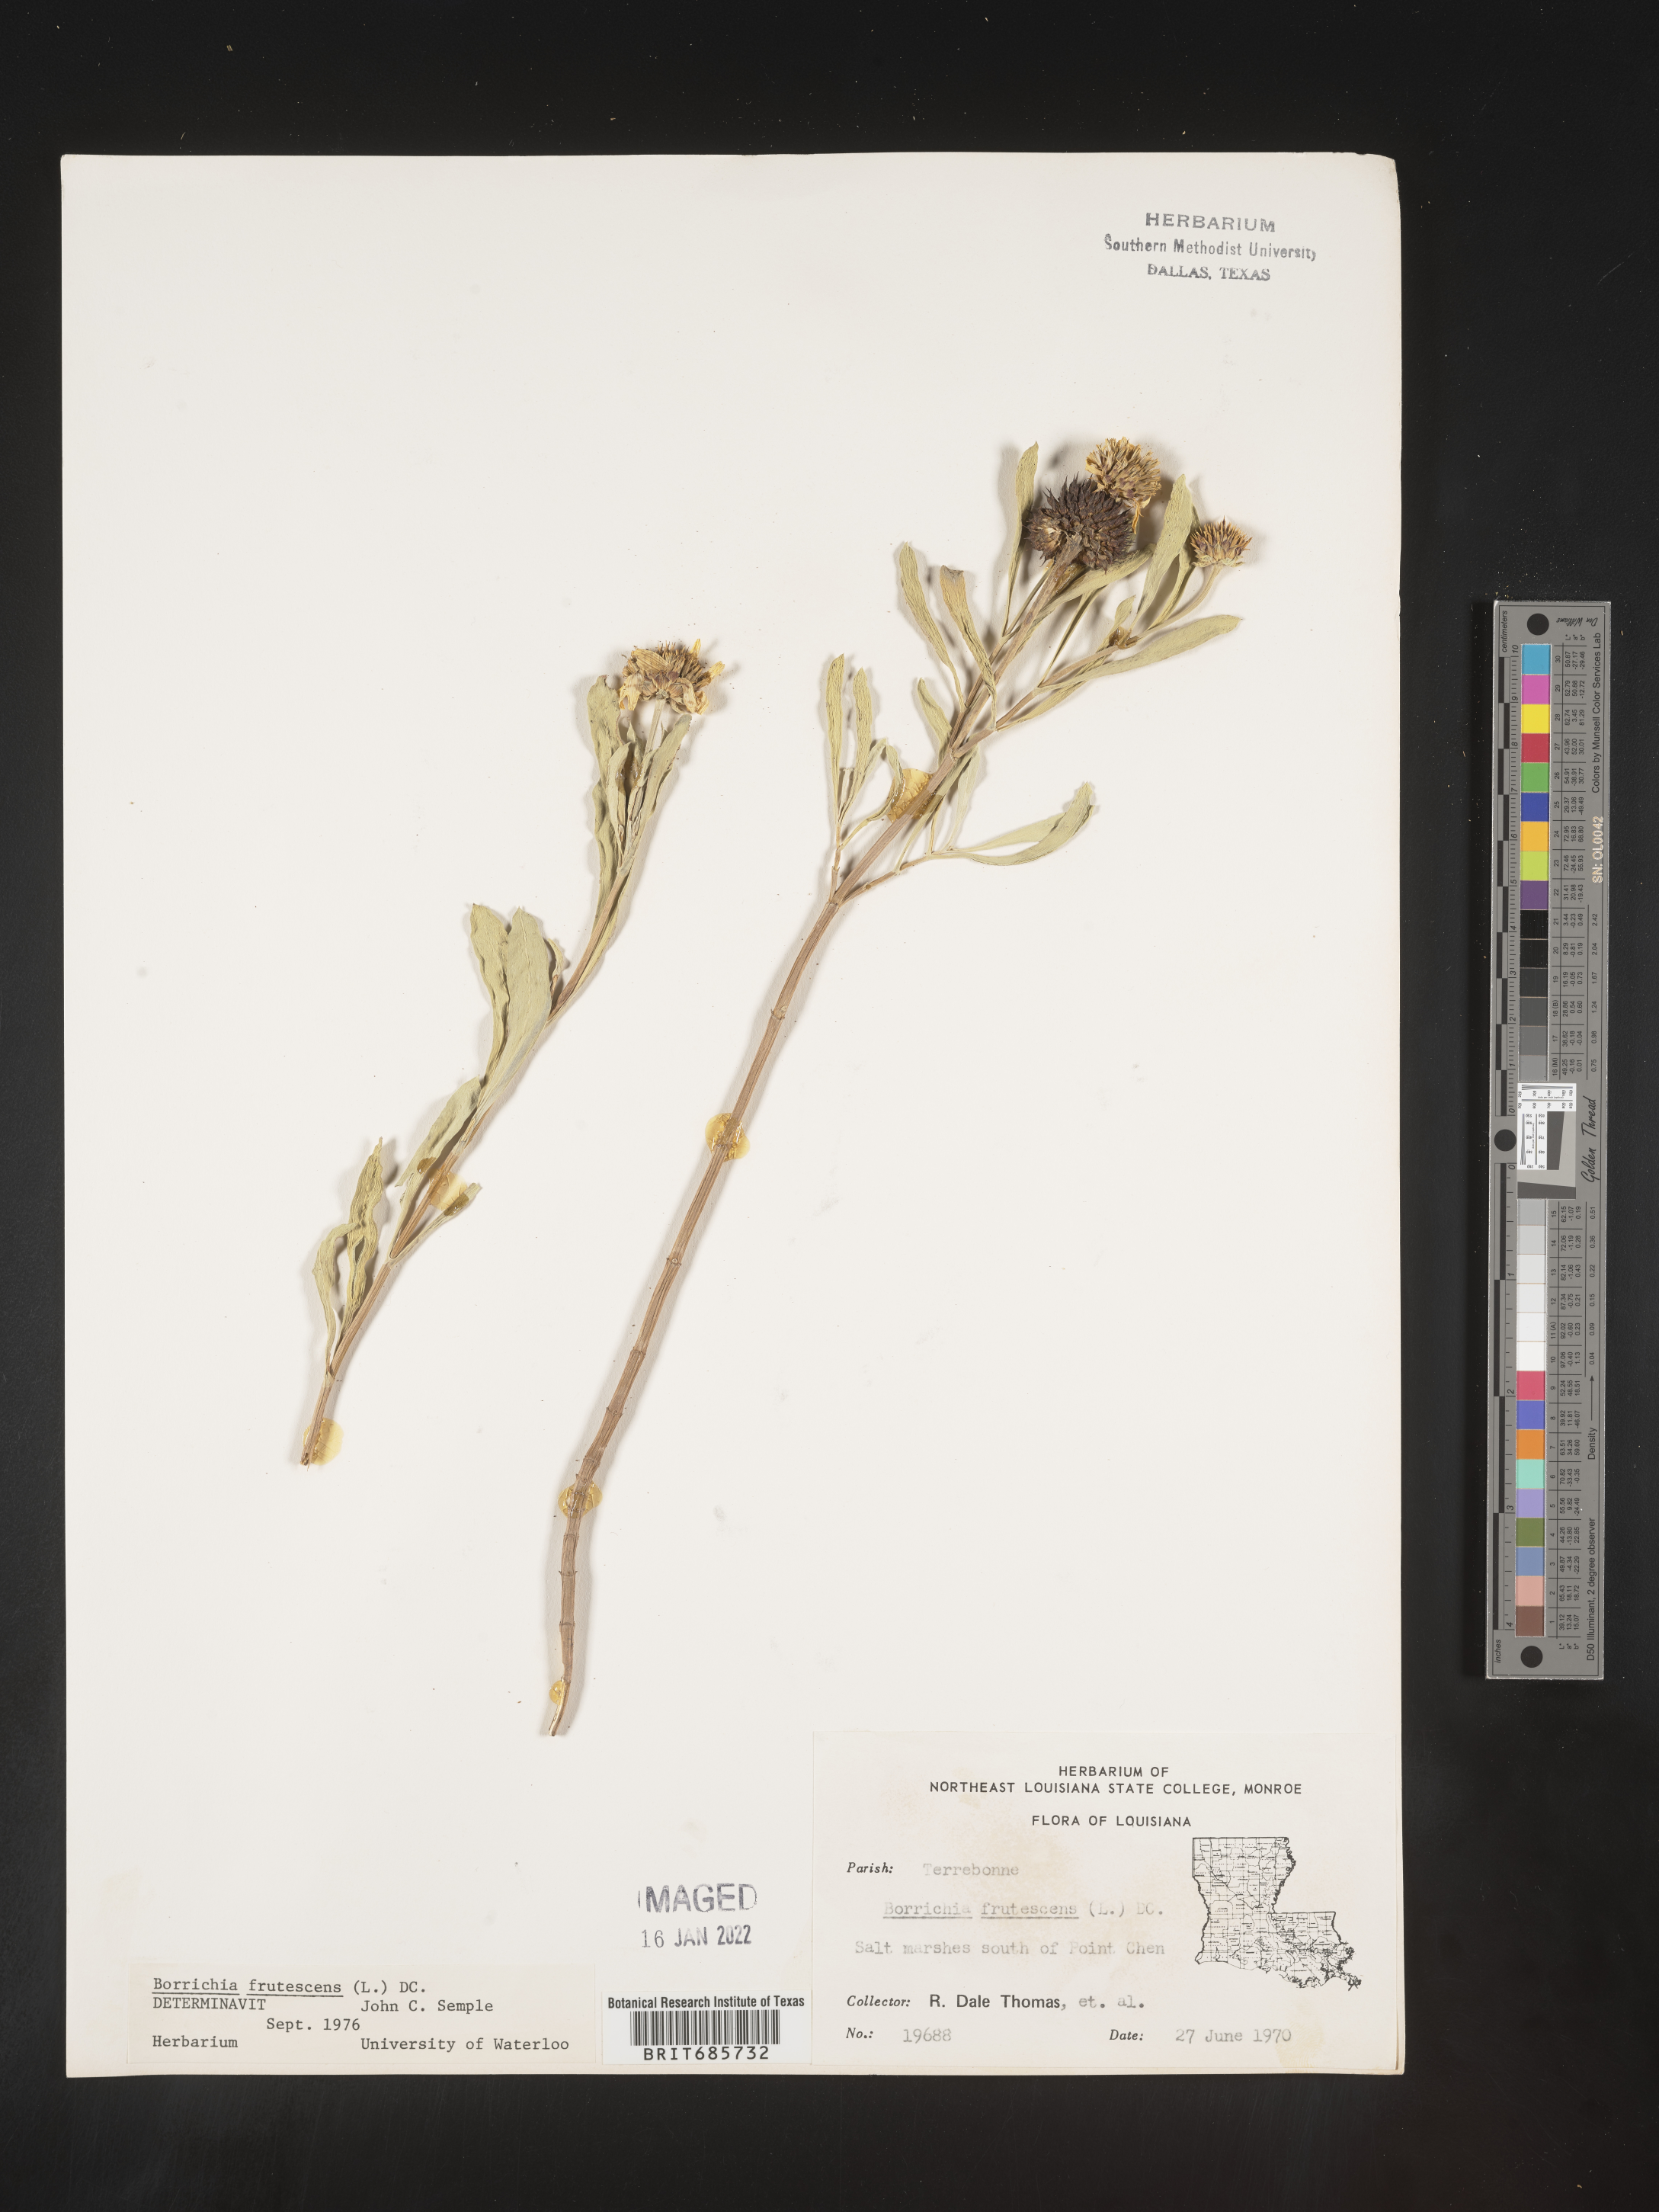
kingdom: Plantae
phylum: Tracheophyta
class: Magnoliopsida
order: Asterales
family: Asteraceae
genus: Borrichia
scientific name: Borrichia frutescens
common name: Sea oxeye
